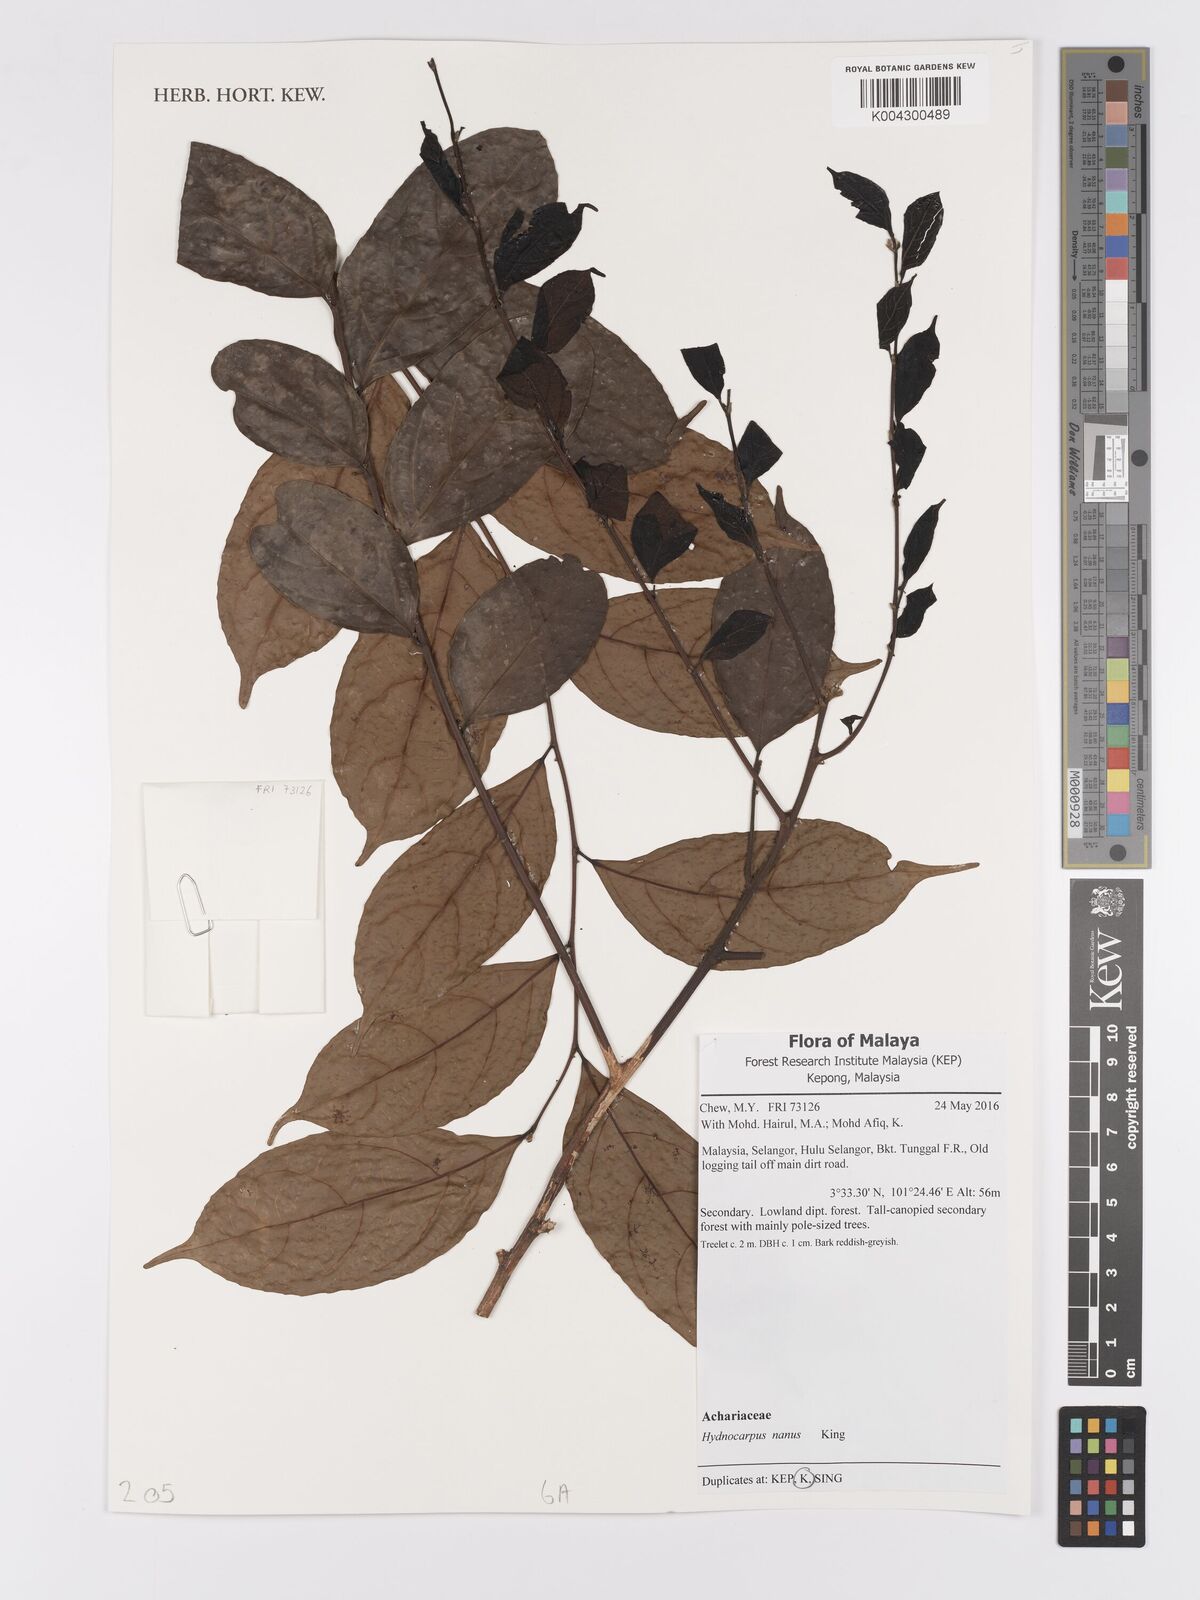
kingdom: Plantae
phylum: Tracheophyta
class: Magnoliopsida
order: Malpighiales
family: Achariaceae
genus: Hydnocarpus
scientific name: Hydnocarpus nanus
